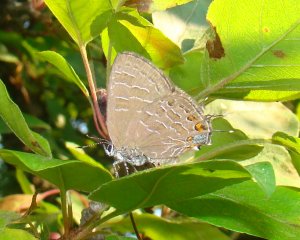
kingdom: Animalia
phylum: Arthropoda
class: Insecta
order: Lepidoptera
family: Lycaenidae
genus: Satyrium
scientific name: Satyrium liparops
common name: Striped Hairstreak
